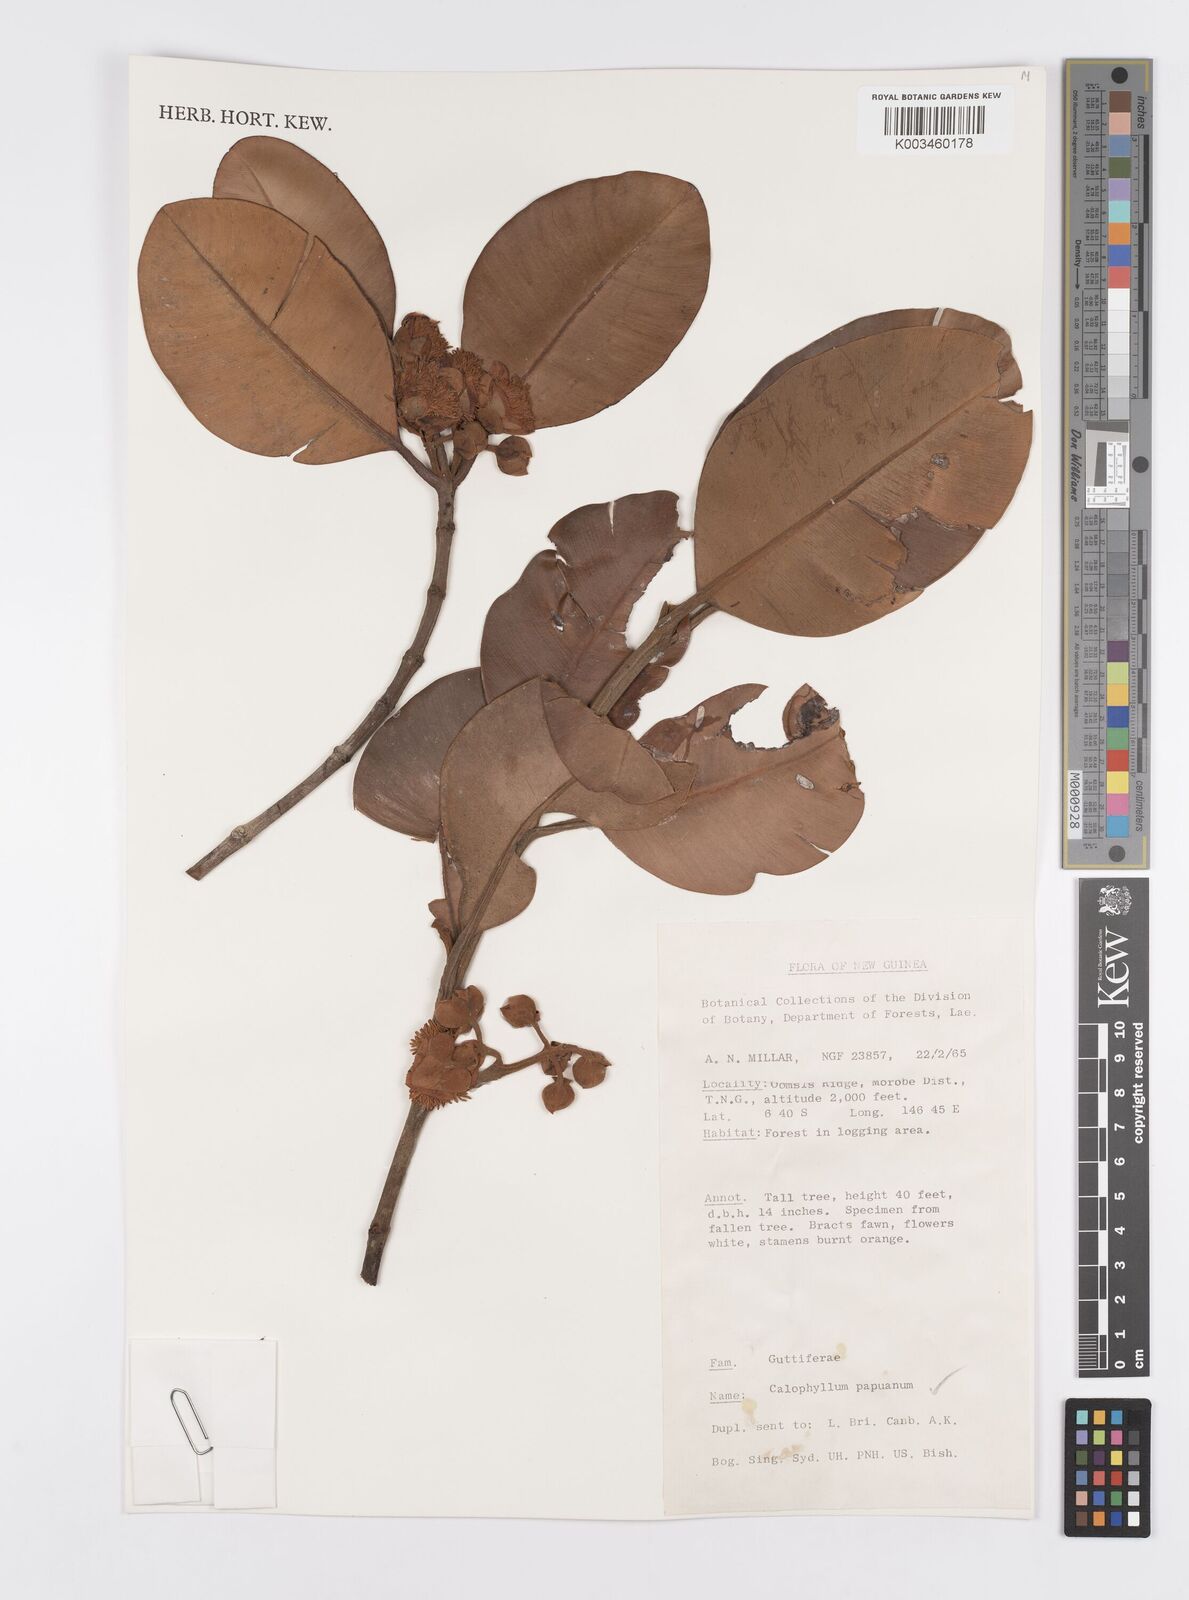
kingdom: Plantae
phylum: Tracheophyta
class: Magnoliopsida
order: Malpighiales
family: Calophyllaceae
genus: Calophyllum
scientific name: Calophyllum papuanum
